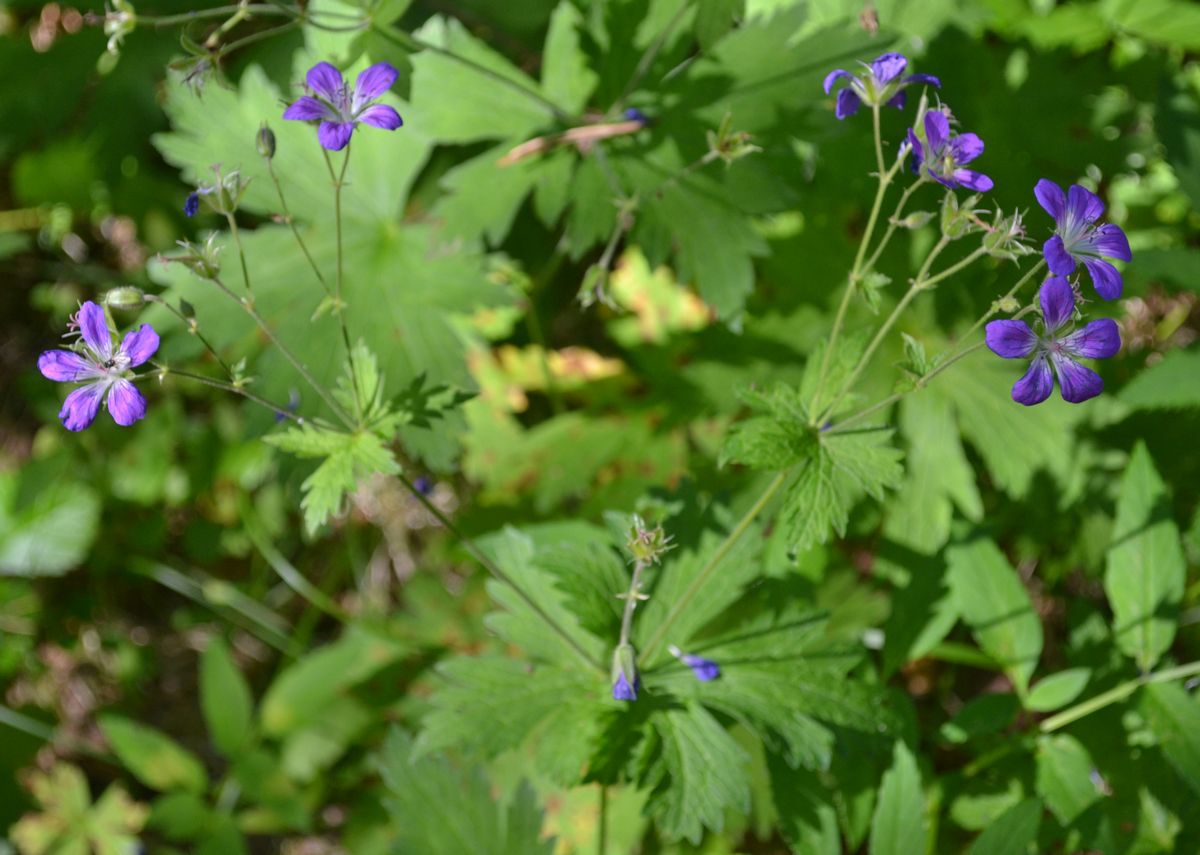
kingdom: Plantae
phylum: Tracheophyta
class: Magnoliopsida
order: Geraniales
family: Geraniaceae
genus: Geranium
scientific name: Geranium pratense
